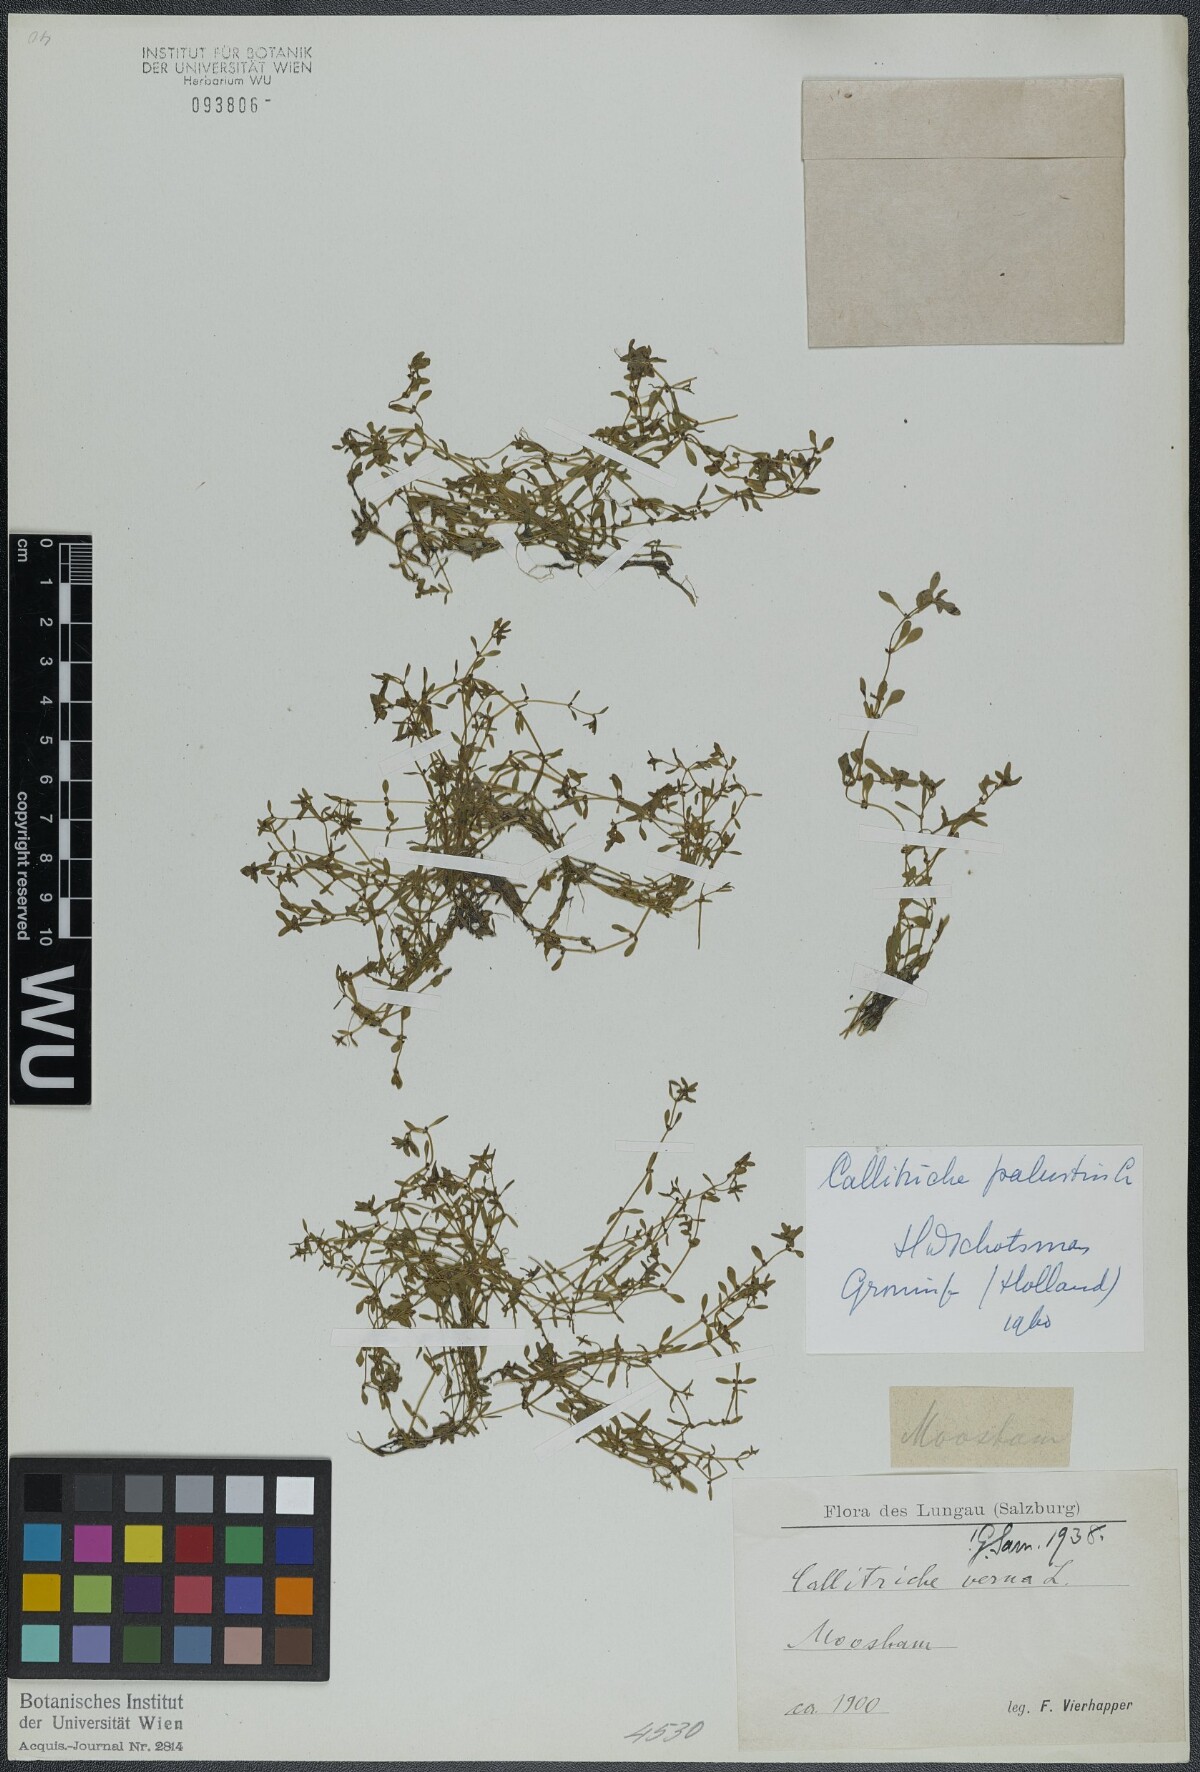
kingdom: Plantae
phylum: Tracheophyta
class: Magnoliopsida
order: Lamiales
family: Plantaginaceae
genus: Callitriche
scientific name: Callitriche palustris
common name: Spring water-starwort
